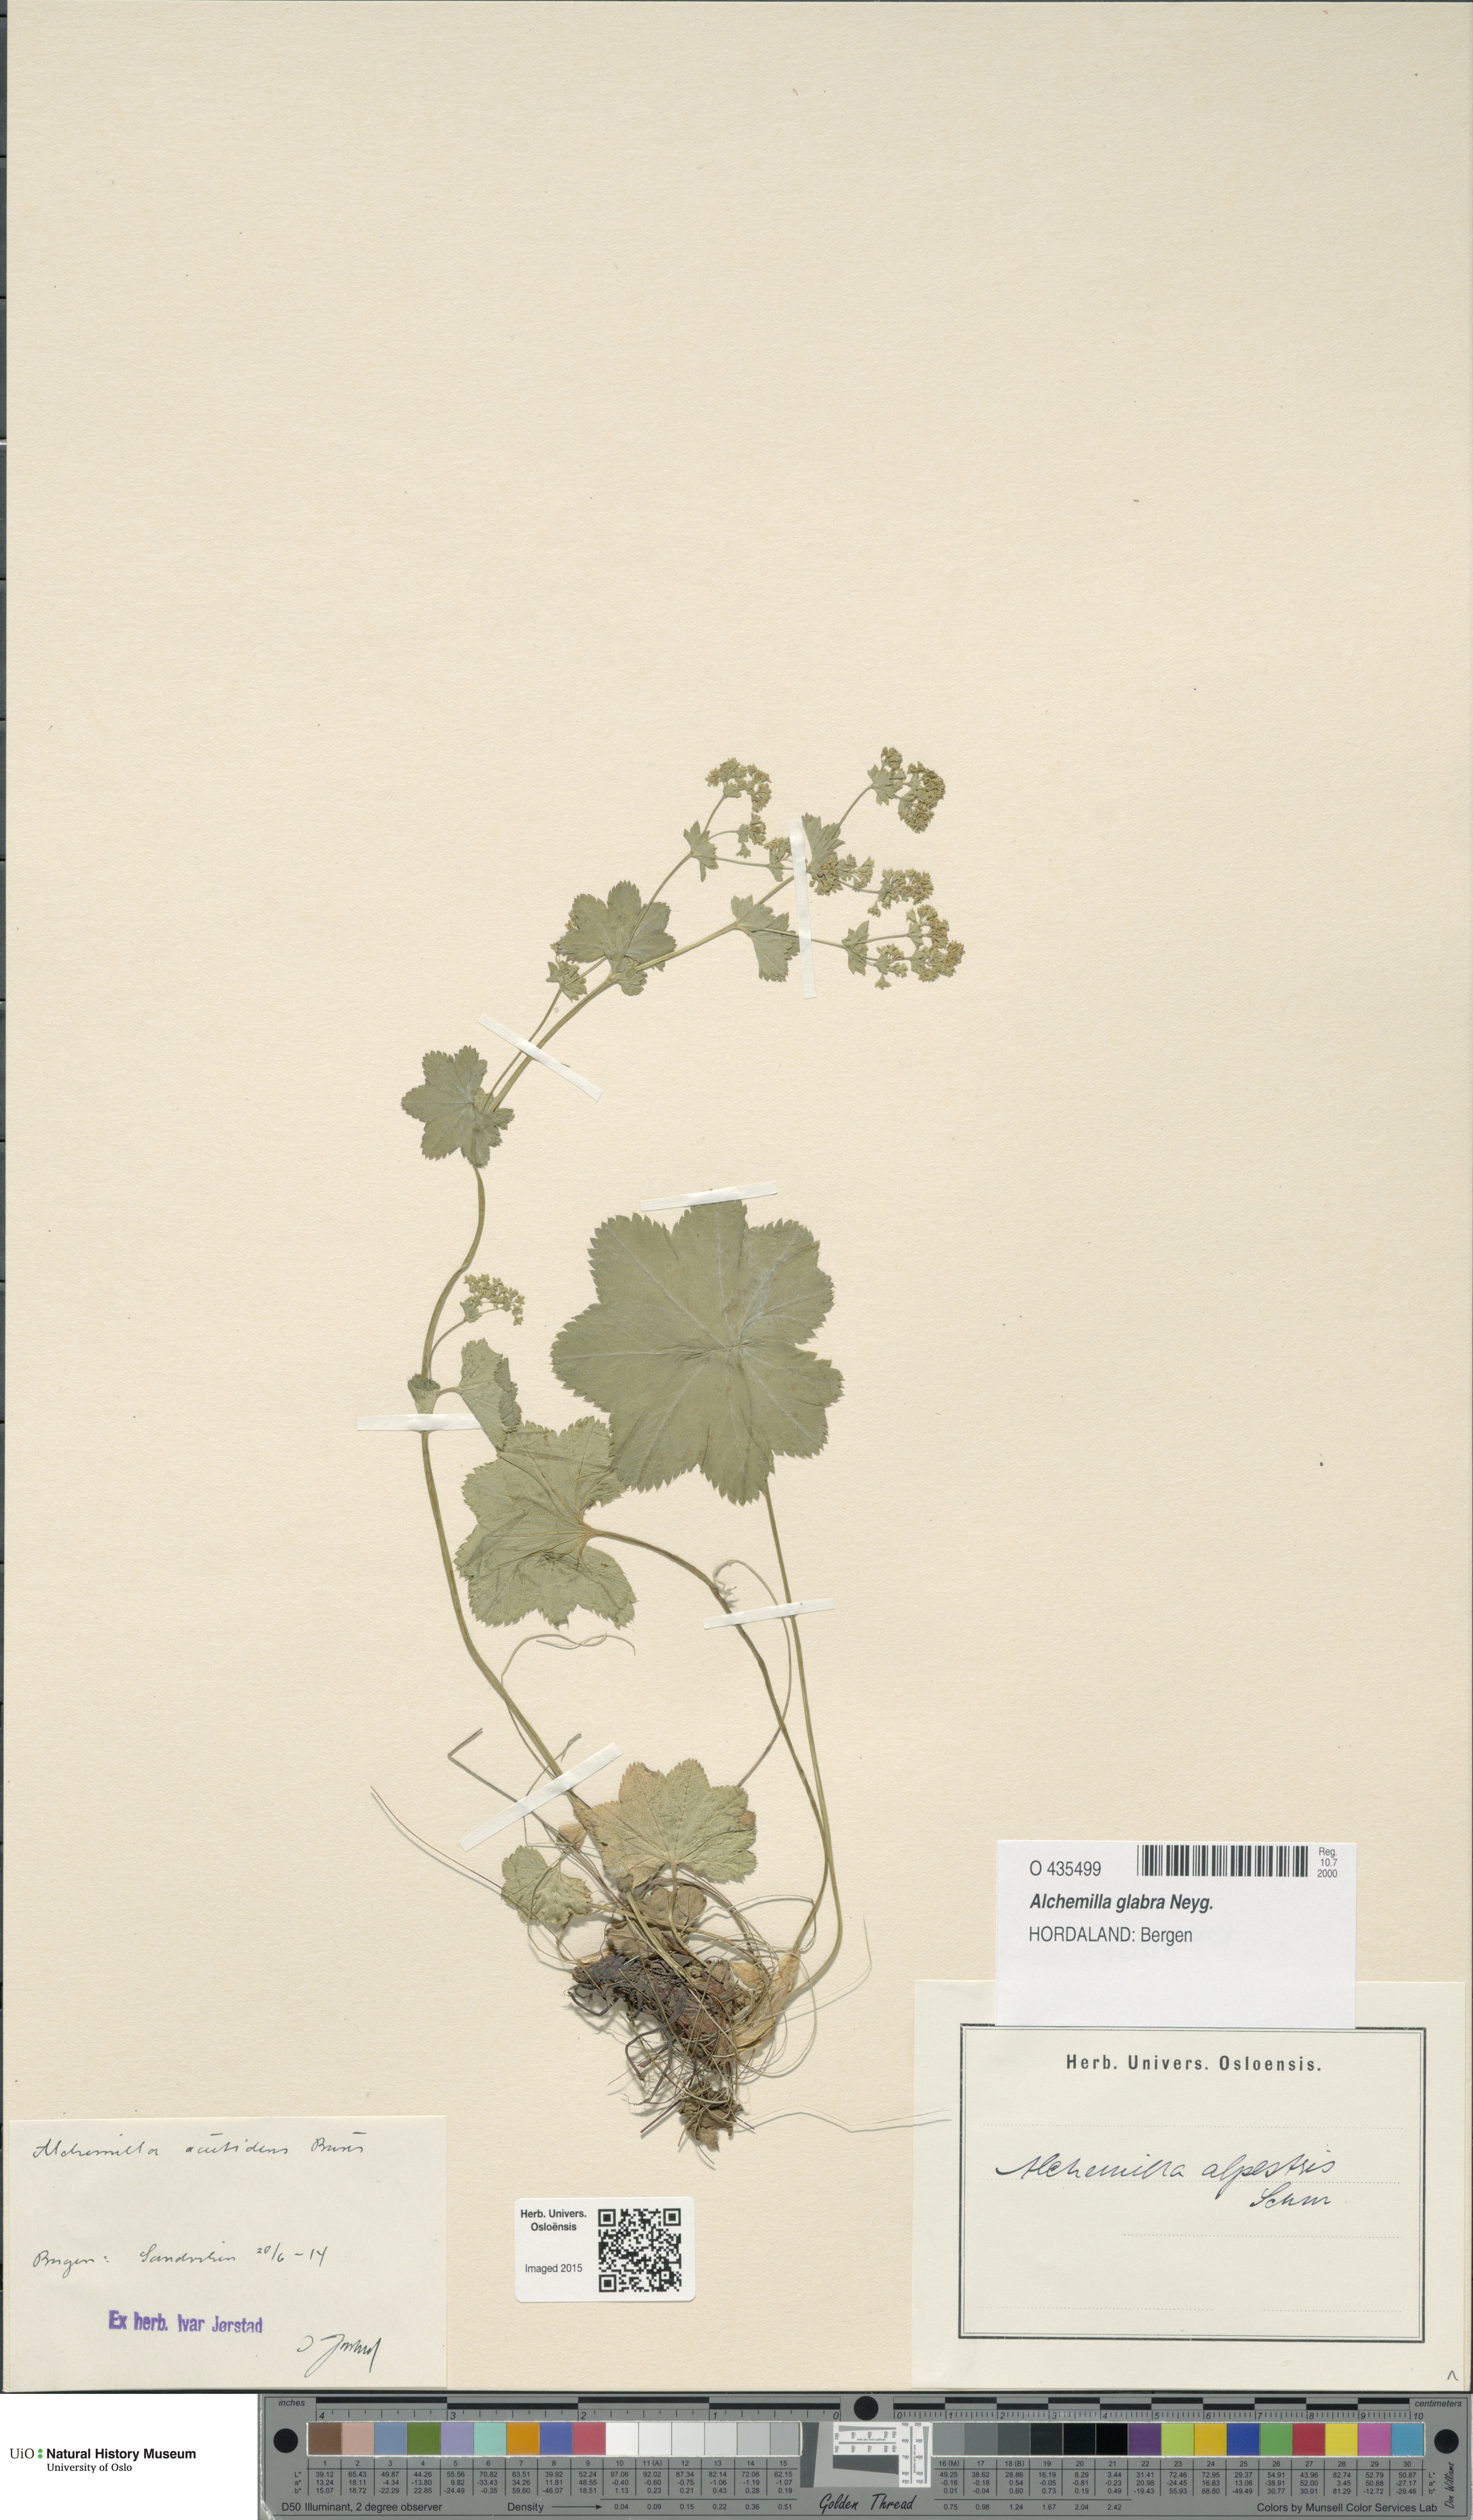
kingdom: Plantae
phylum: Tracheophyta
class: Magnoliopsida
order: Rosales
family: Rosaceae
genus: Alchemilla
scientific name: Alchemilla glabra
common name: Smooth lady's-mantle
